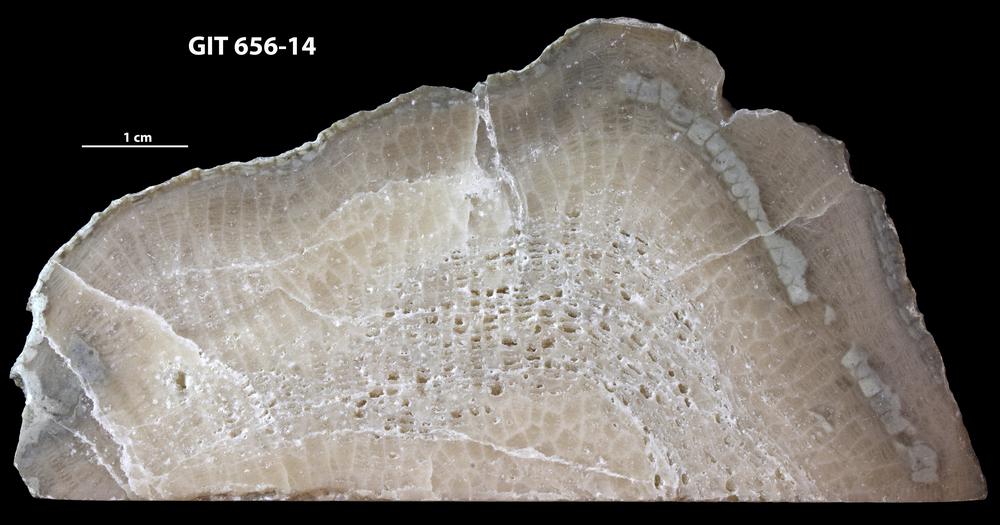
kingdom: Animalia
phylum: Cnidaria
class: Anthozoa
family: Favositidae
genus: Favosites
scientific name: Favosites
